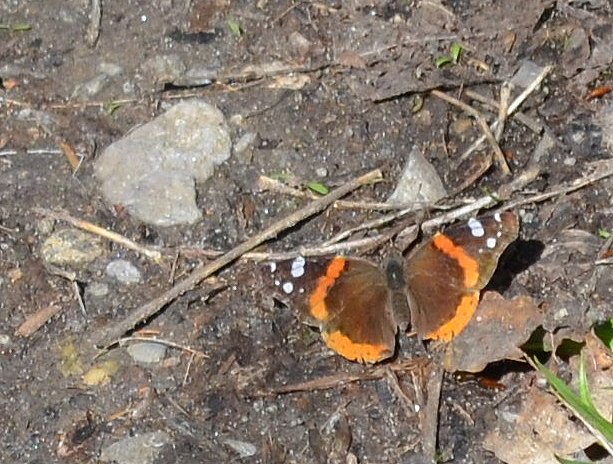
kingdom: Animalia
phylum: Arthropoda
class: Insecta
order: Lepidoptera
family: Nymphalidae
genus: Vanessa
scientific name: Vanessa atalanta
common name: Red Admiral
